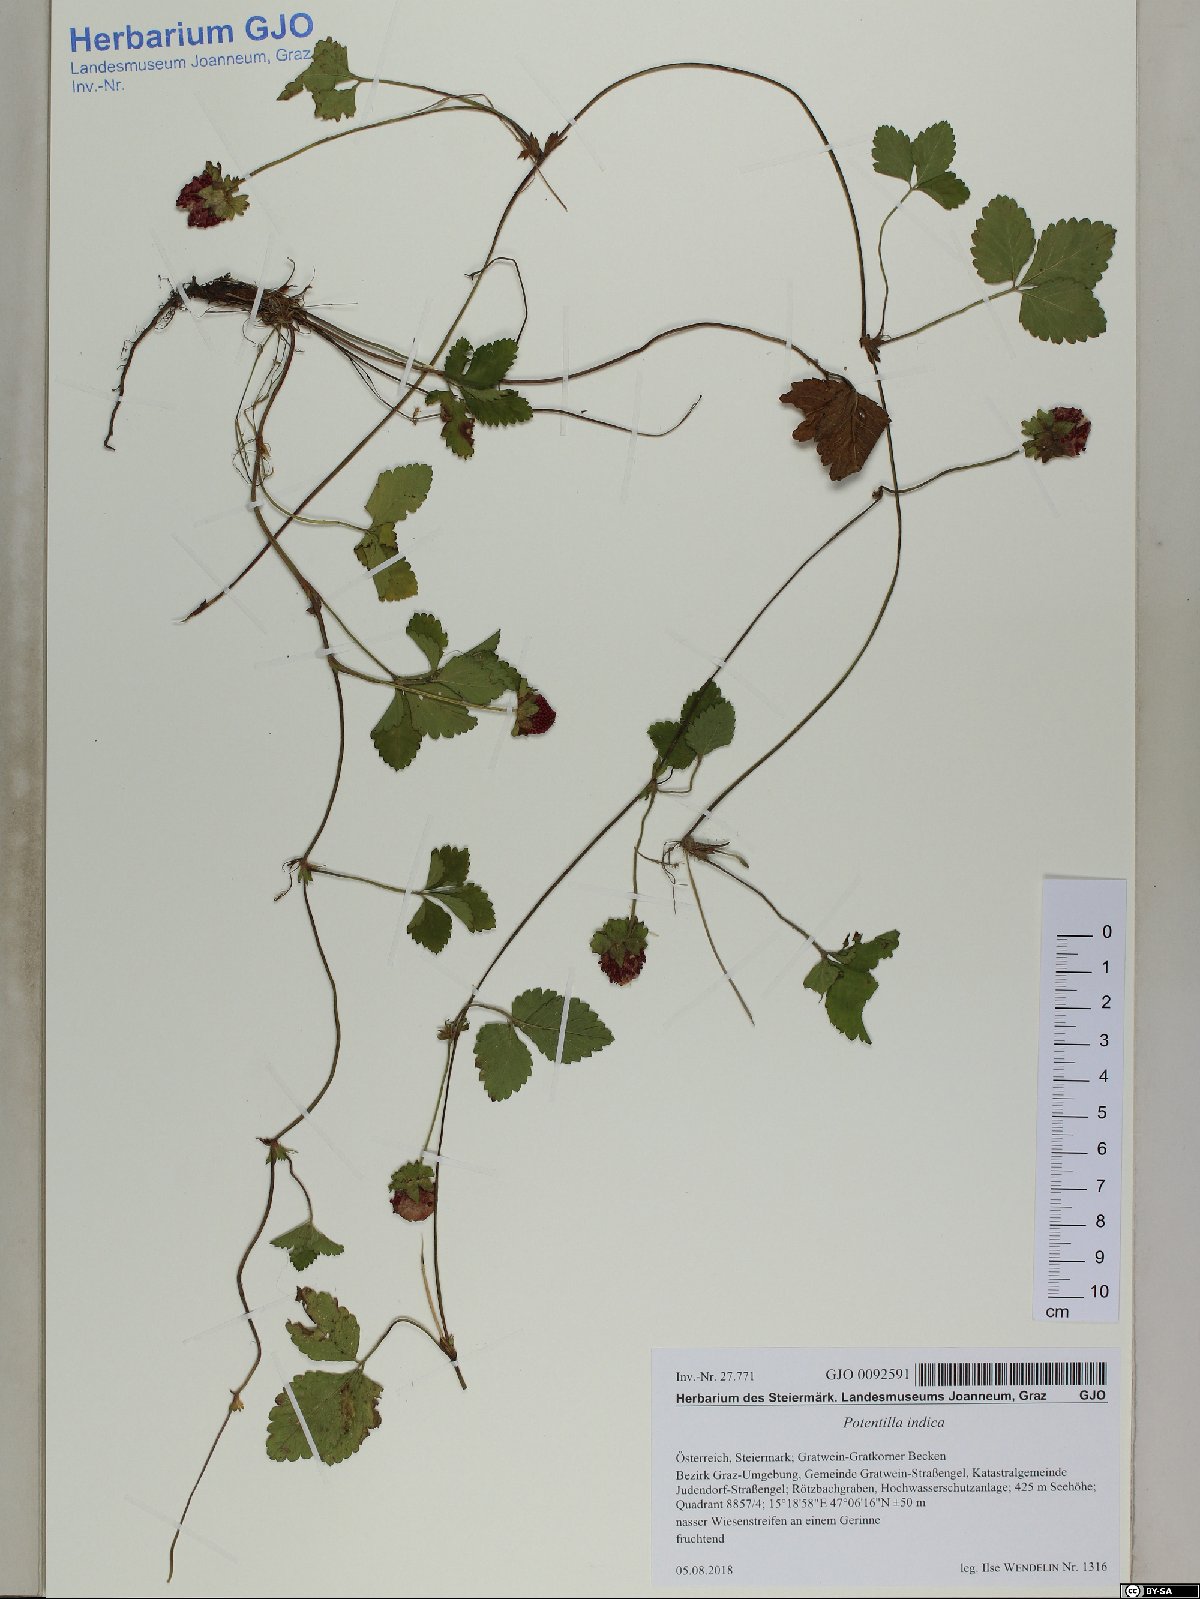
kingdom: Plantae
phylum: Tracheophyta
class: Magnoliopsida
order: Rosales
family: Rosaceae
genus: Potentilla
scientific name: Potentilla indica
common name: Yellow-flowered strawberry
